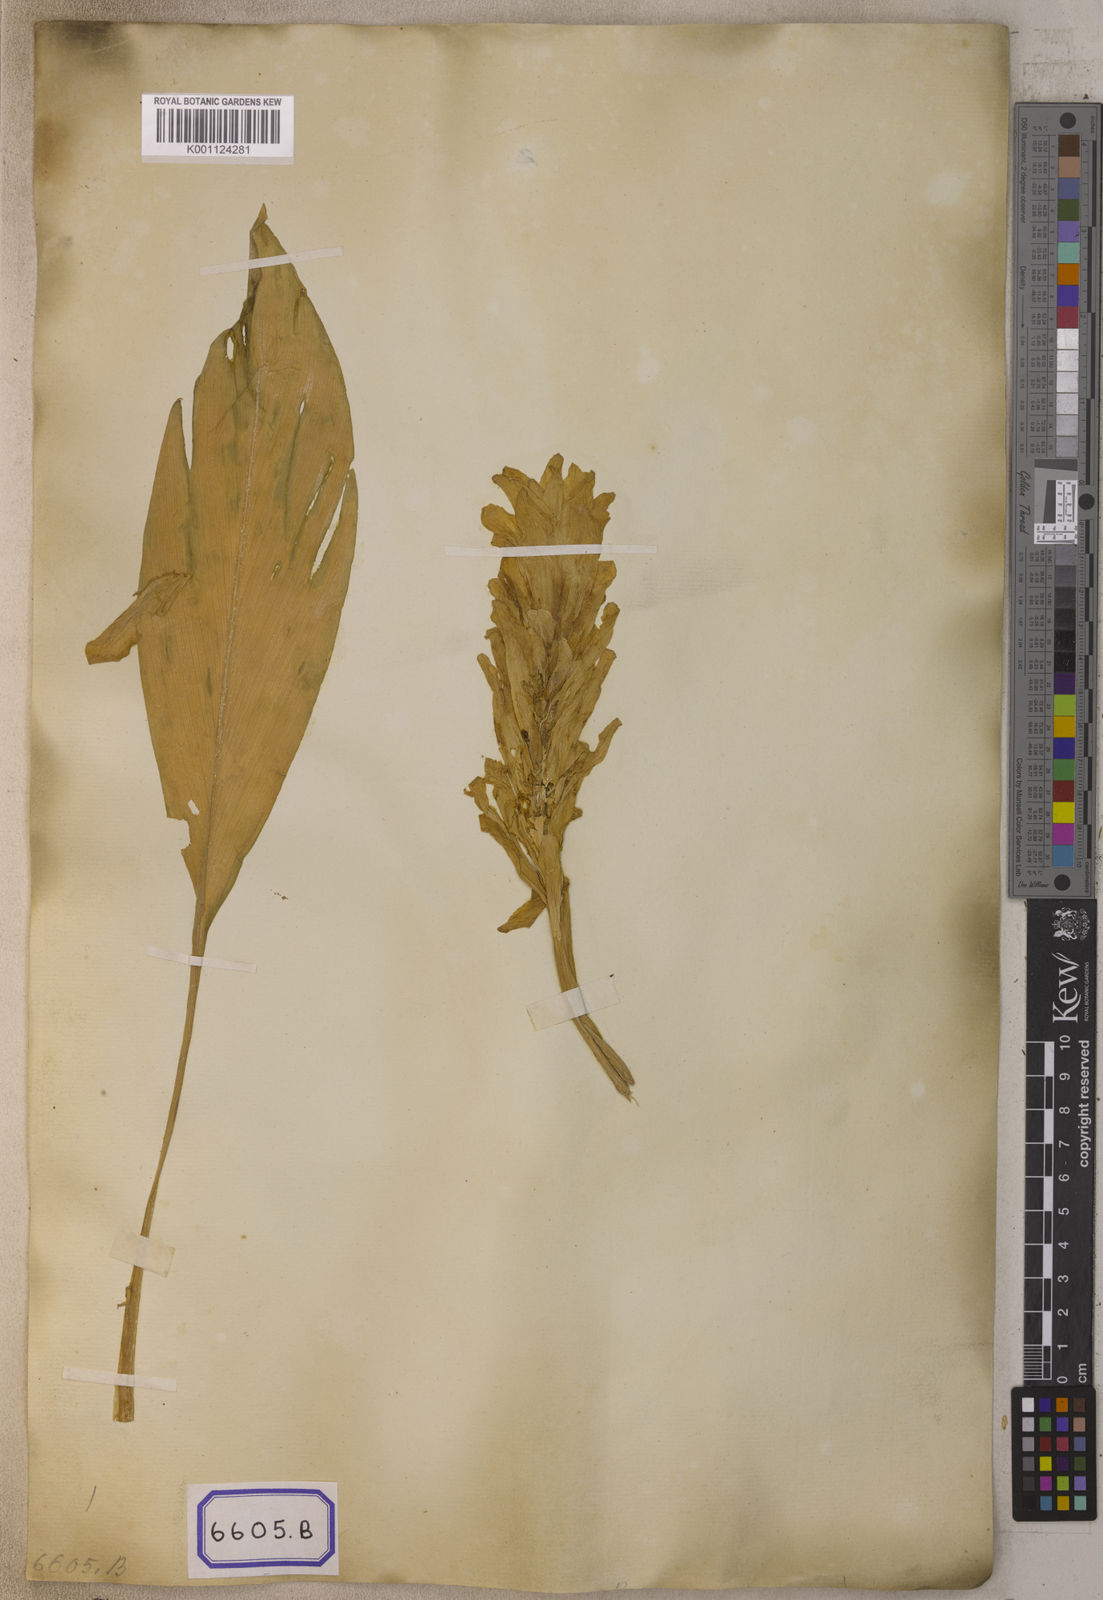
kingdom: Plantae
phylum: Tracheophyta
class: Liliopsida
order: Zingiberales
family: Zingiberaceae
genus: Curcuma
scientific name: Curcuma longa
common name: Turmeric
